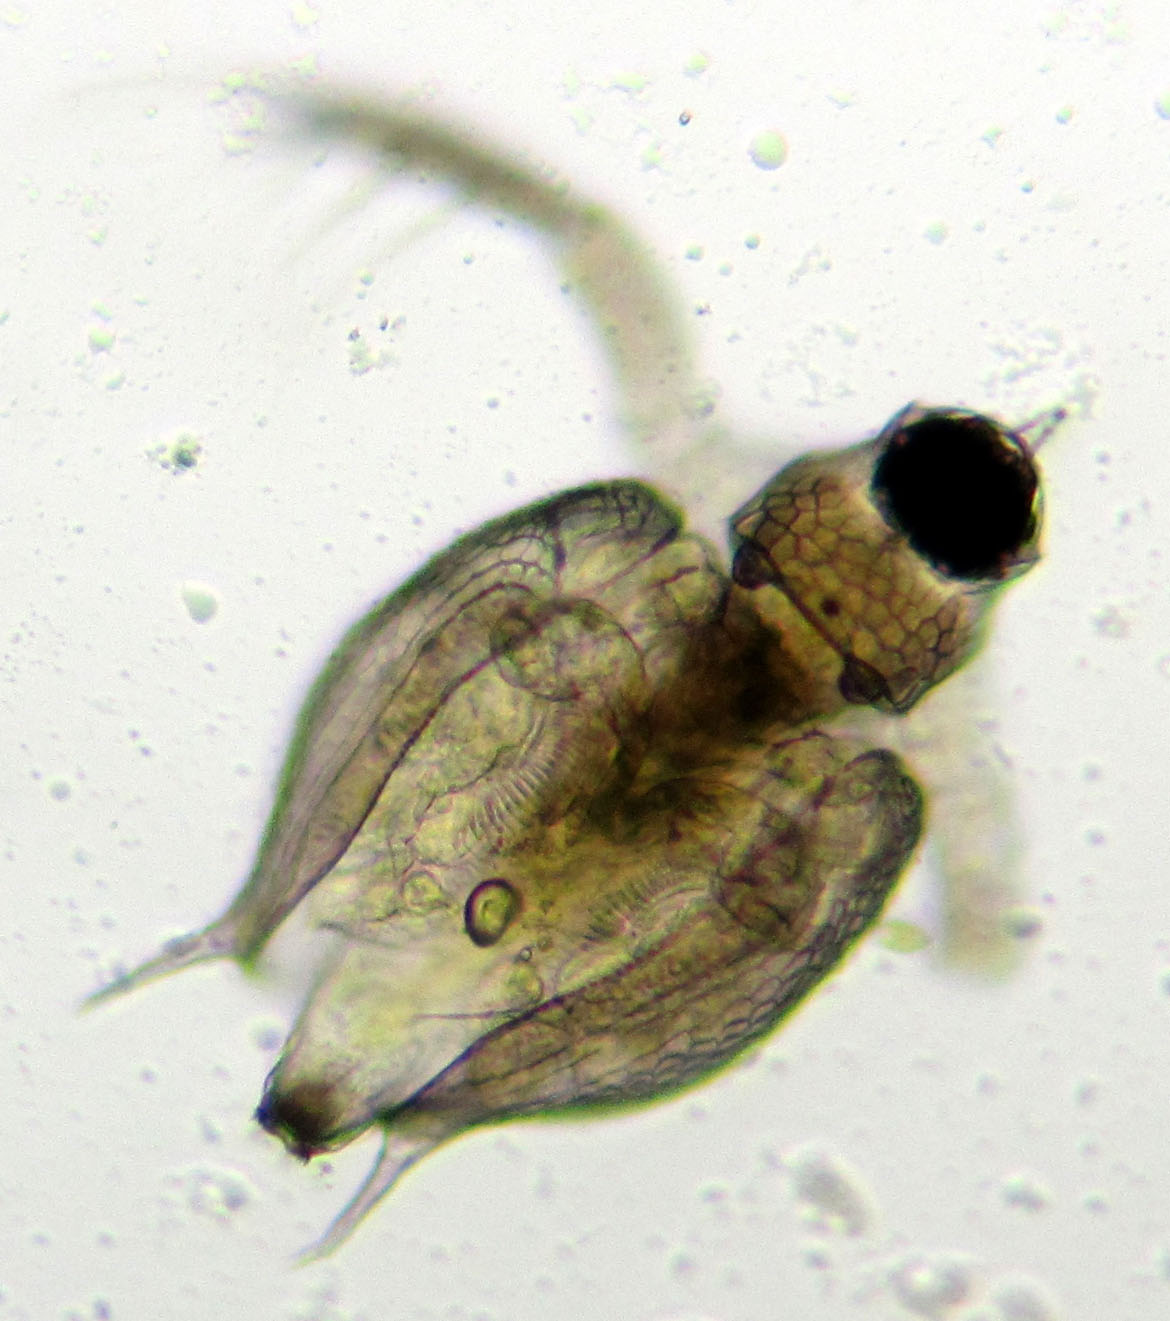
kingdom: Animalia
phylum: Arthropoda
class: Branchiopoda
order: Diplostraca
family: Daphniidae
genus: Scapholeberis
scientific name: Scapholeberis mucronata
